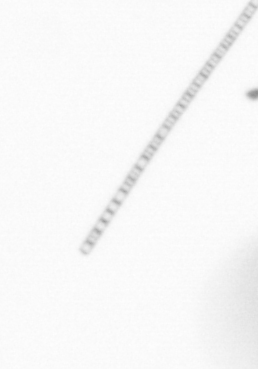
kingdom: Chromista
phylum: Ochrophyta
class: Bacillariophyceae
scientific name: Bacillariophyceae
